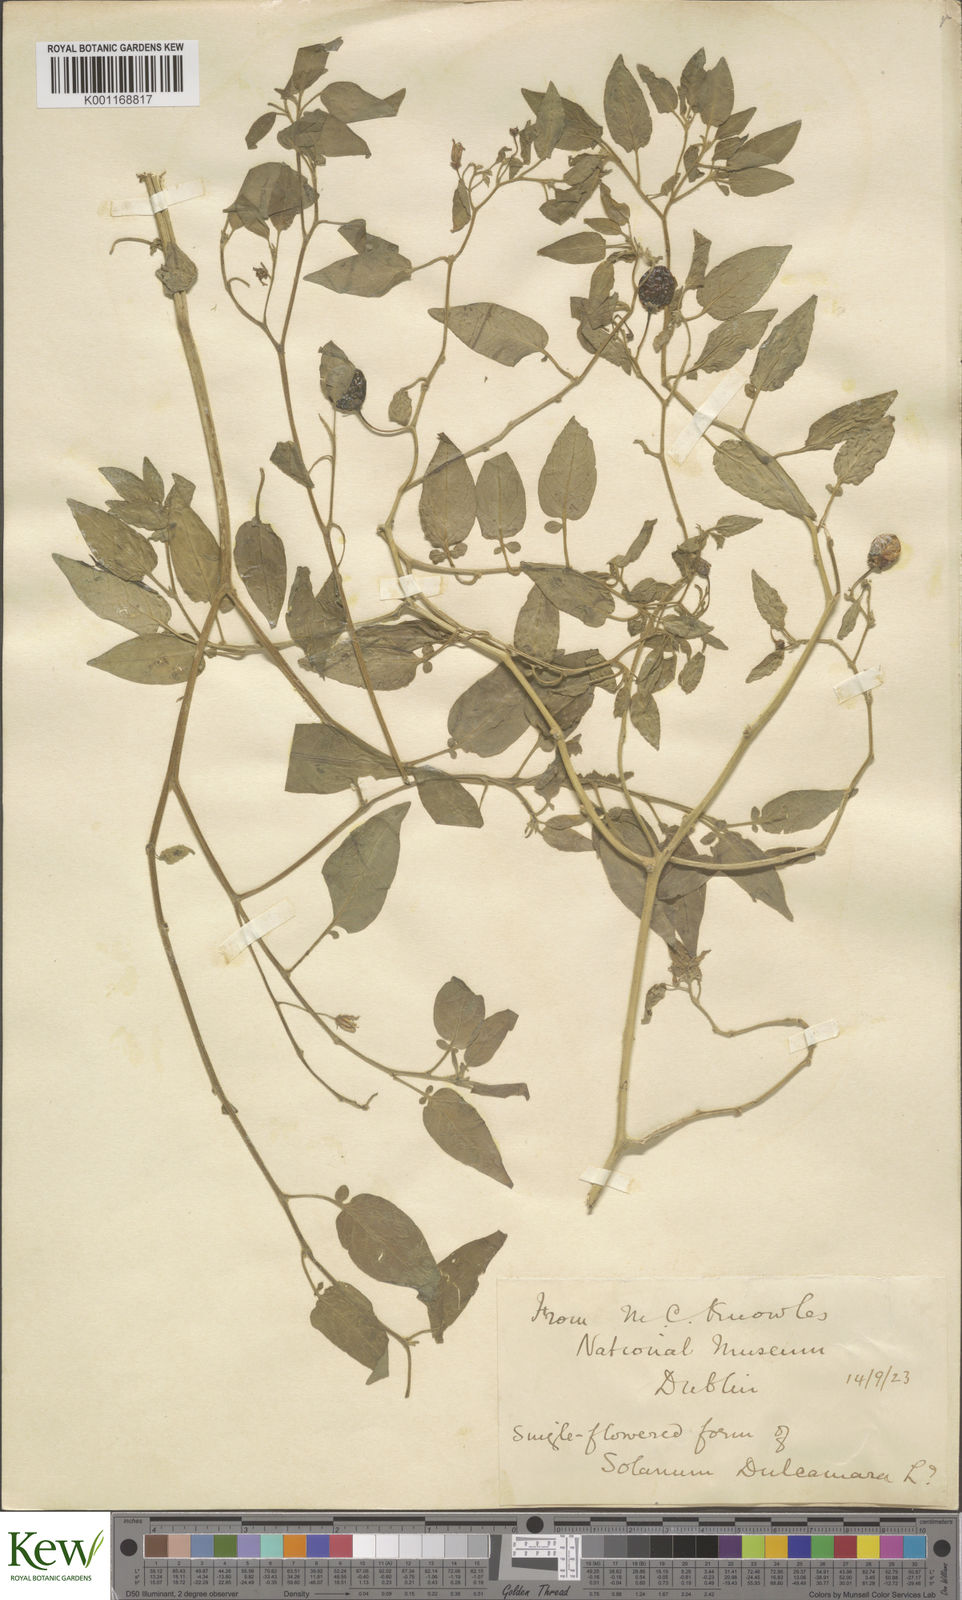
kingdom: Plantae
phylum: Tracheophyta
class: Magnoliopsida
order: Solanales
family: Solanaceae
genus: Solanum
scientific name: Solanum dulcamara
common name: Climbing nightshade
